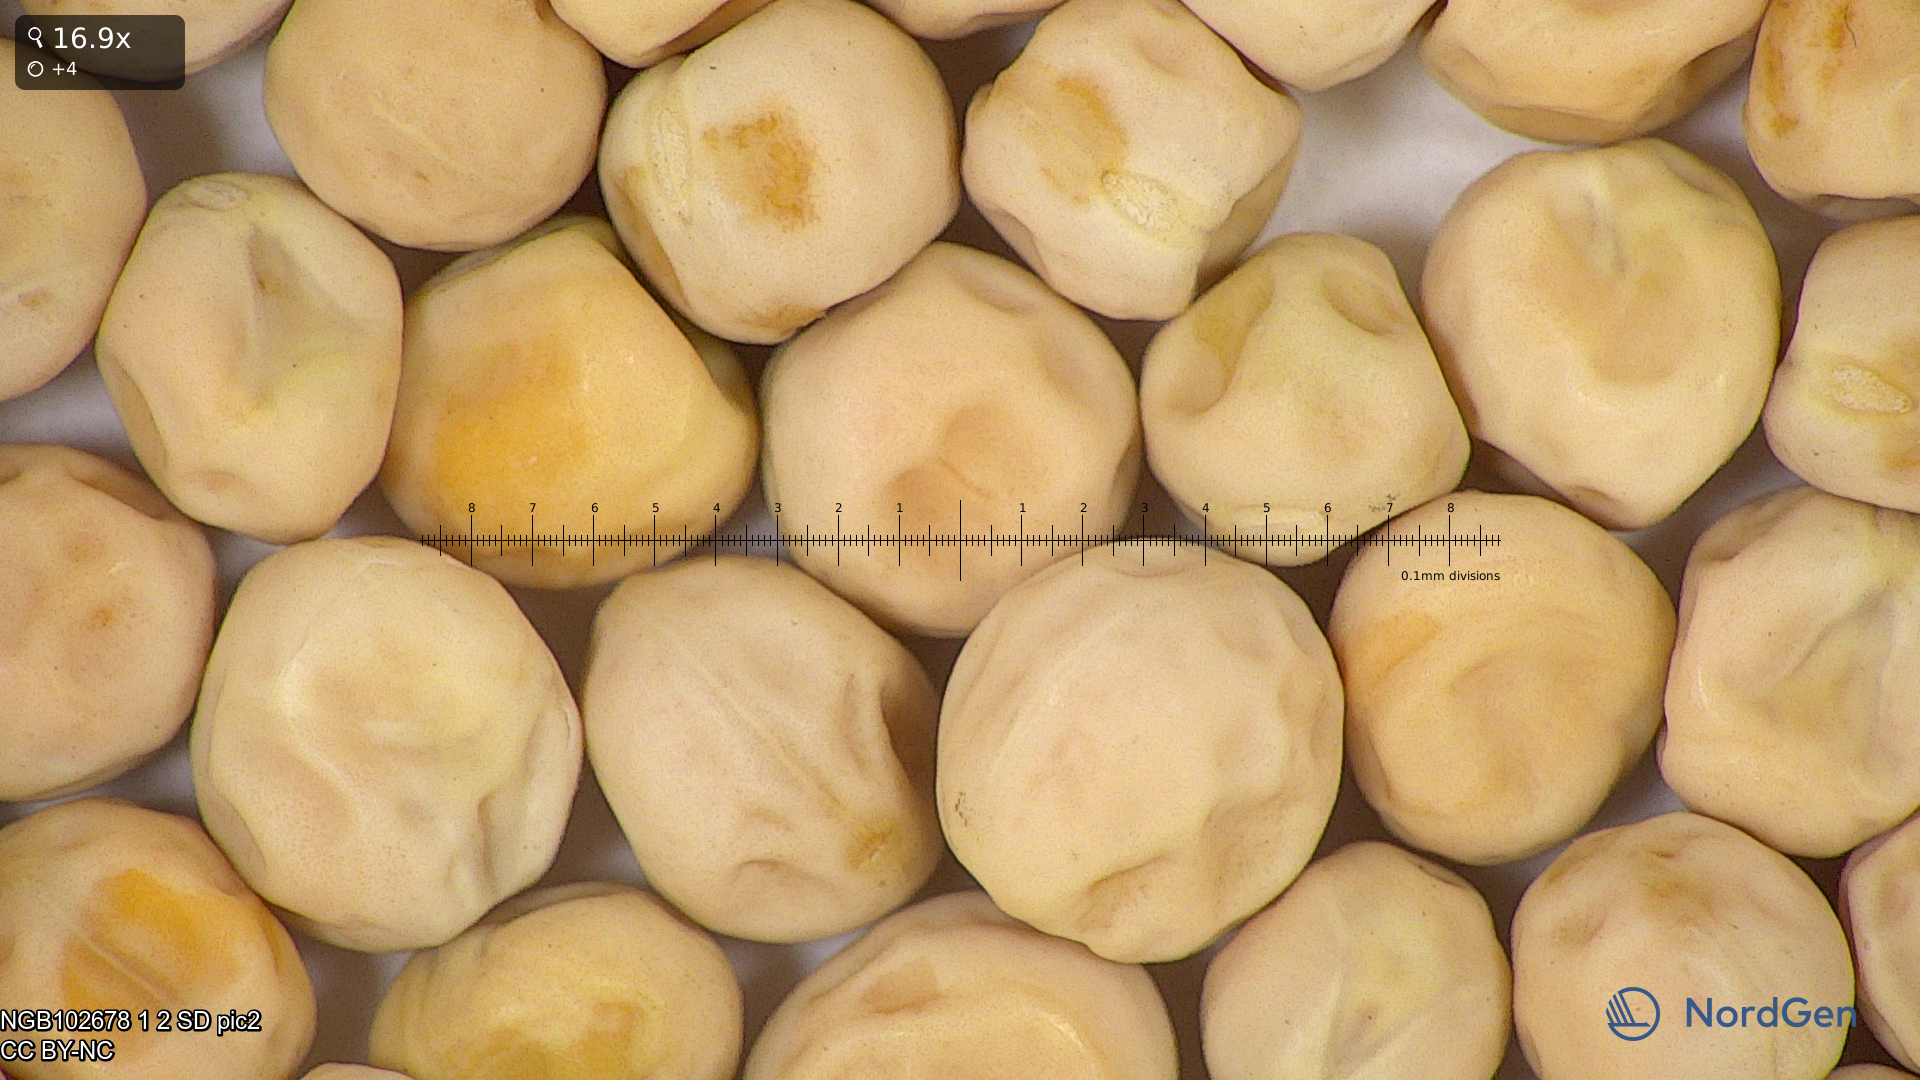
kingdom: Plantae
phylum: Tracheophyta
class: Magnoliopsida
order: Fabales
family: Fabaceae
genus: Lathyrus
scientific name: Lathyrus oleraceus
